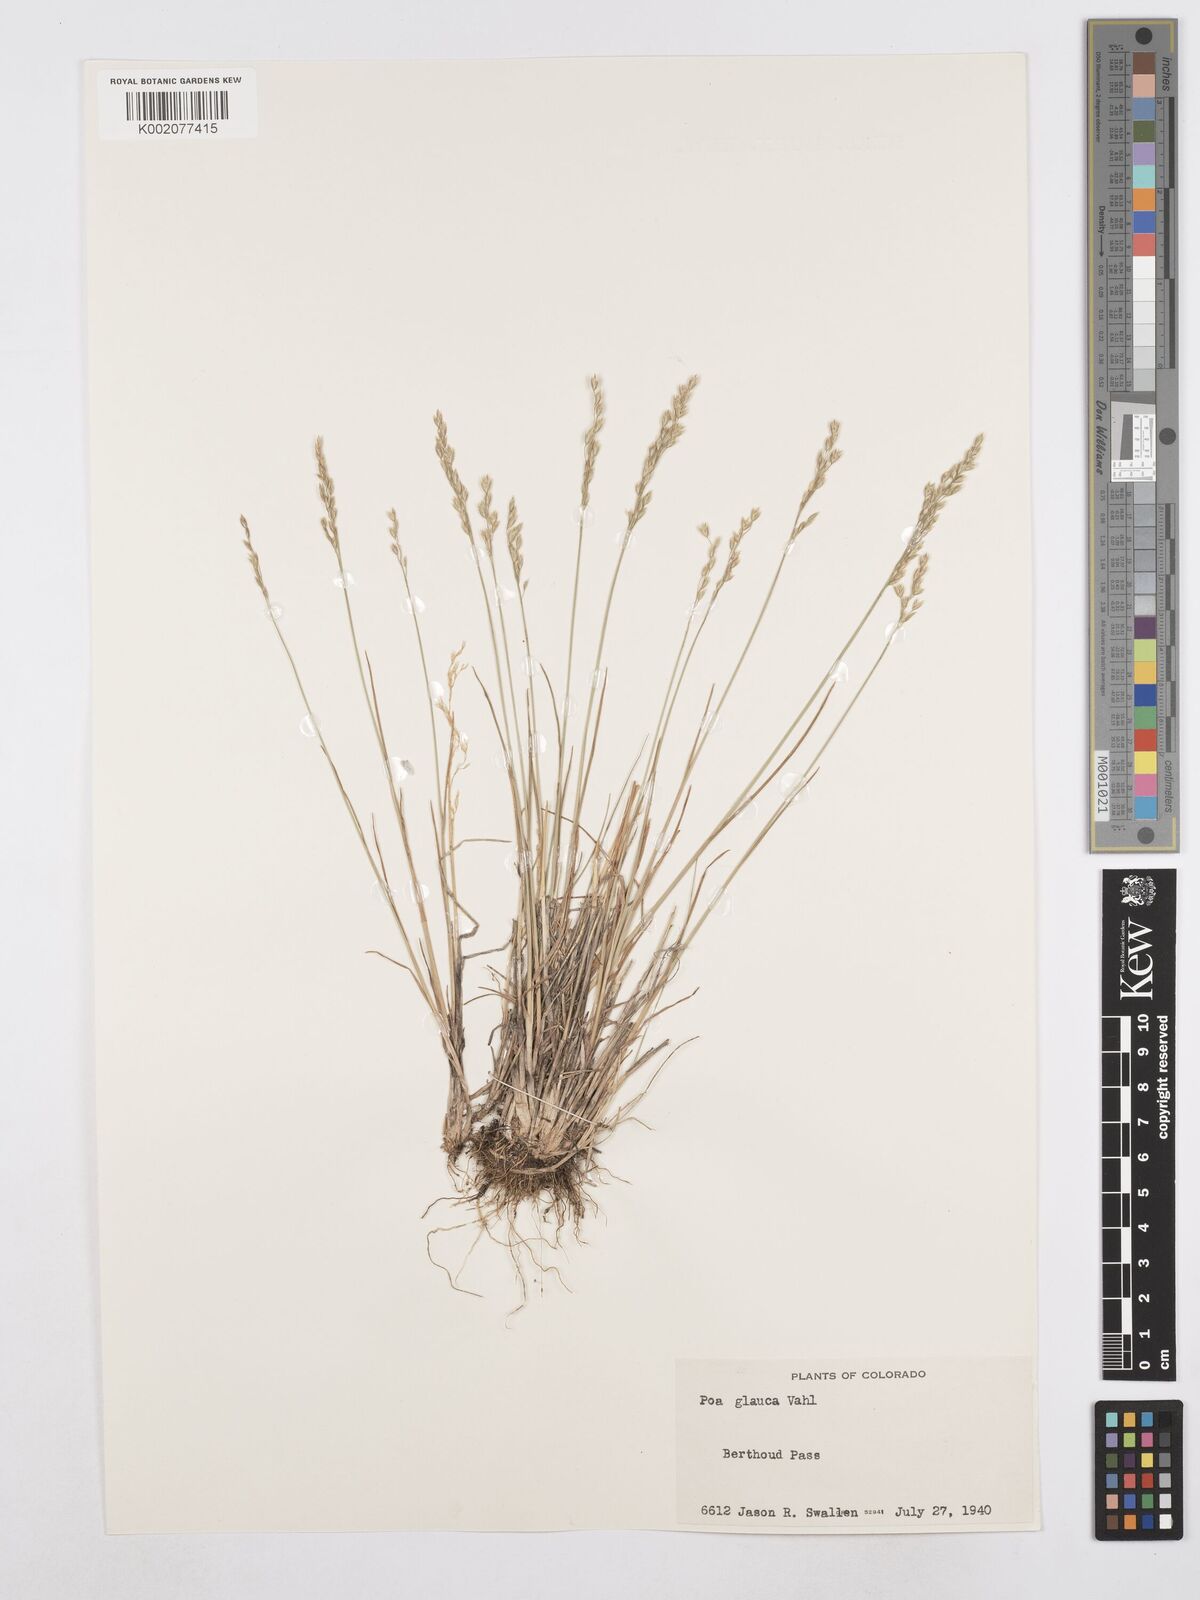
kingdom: Plantae
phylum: Tracheophyta
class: Liliopsida
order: Poales
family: Poaceae
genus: Poa
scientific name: Poa glauca
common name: Glaucous bluegrass
